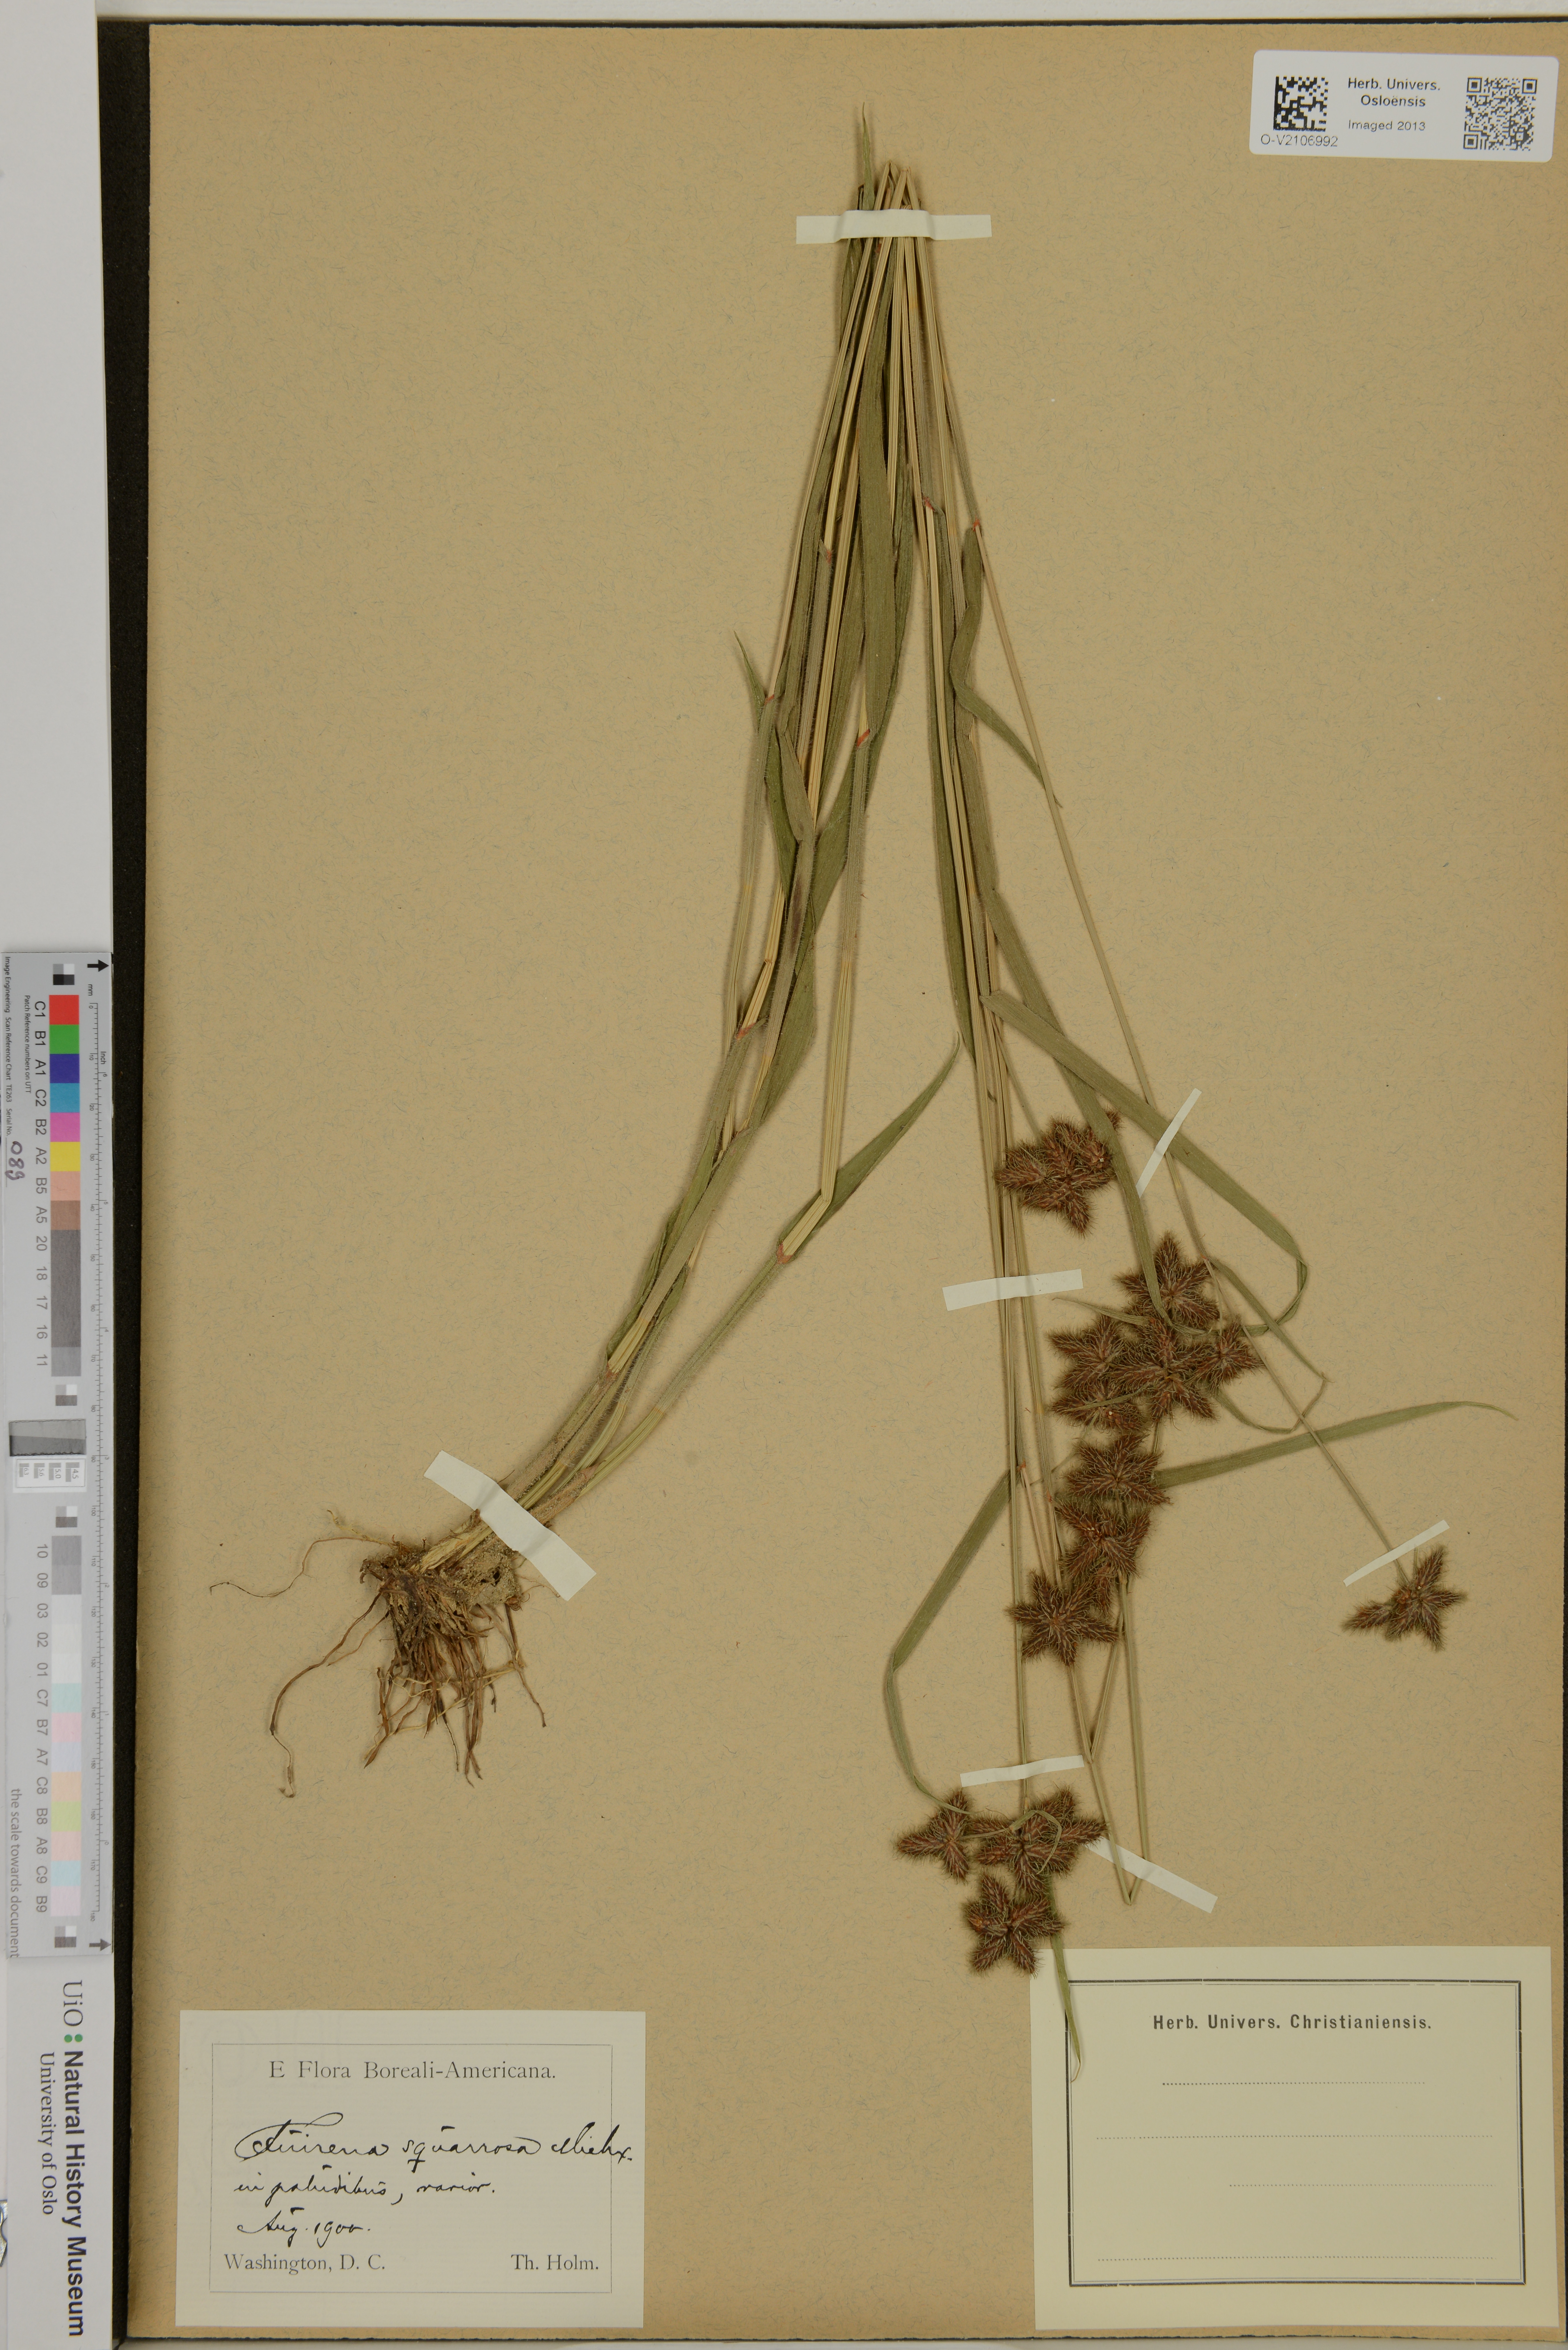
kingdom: Plantae
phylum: Tracheophyta
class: Liliopsida
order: Poales
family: Cyperaceae
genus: Fuirena
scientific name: Fuirena squarrosa
